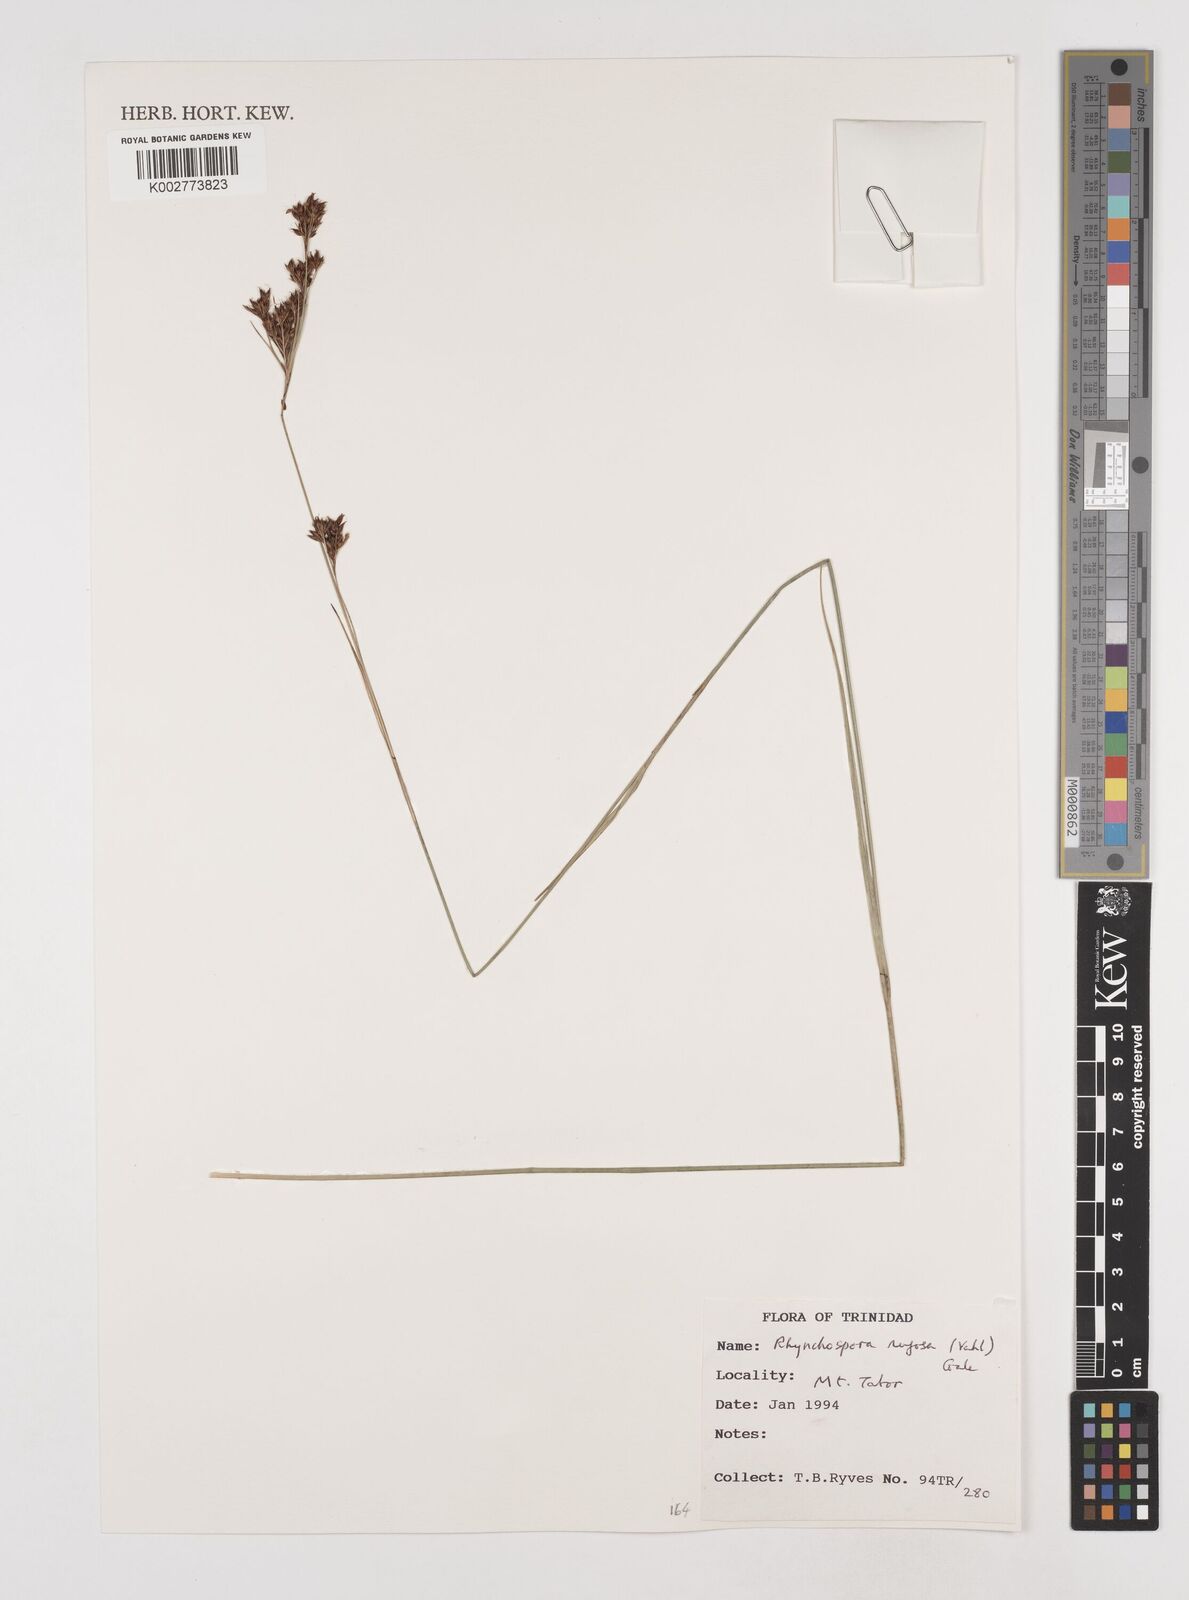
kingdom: Plantae
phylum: Tracheophyta
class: Liliopsida
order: Poales
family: Cyperaceae
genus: Rhynchospora
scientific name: Rhynchospora rugosa
